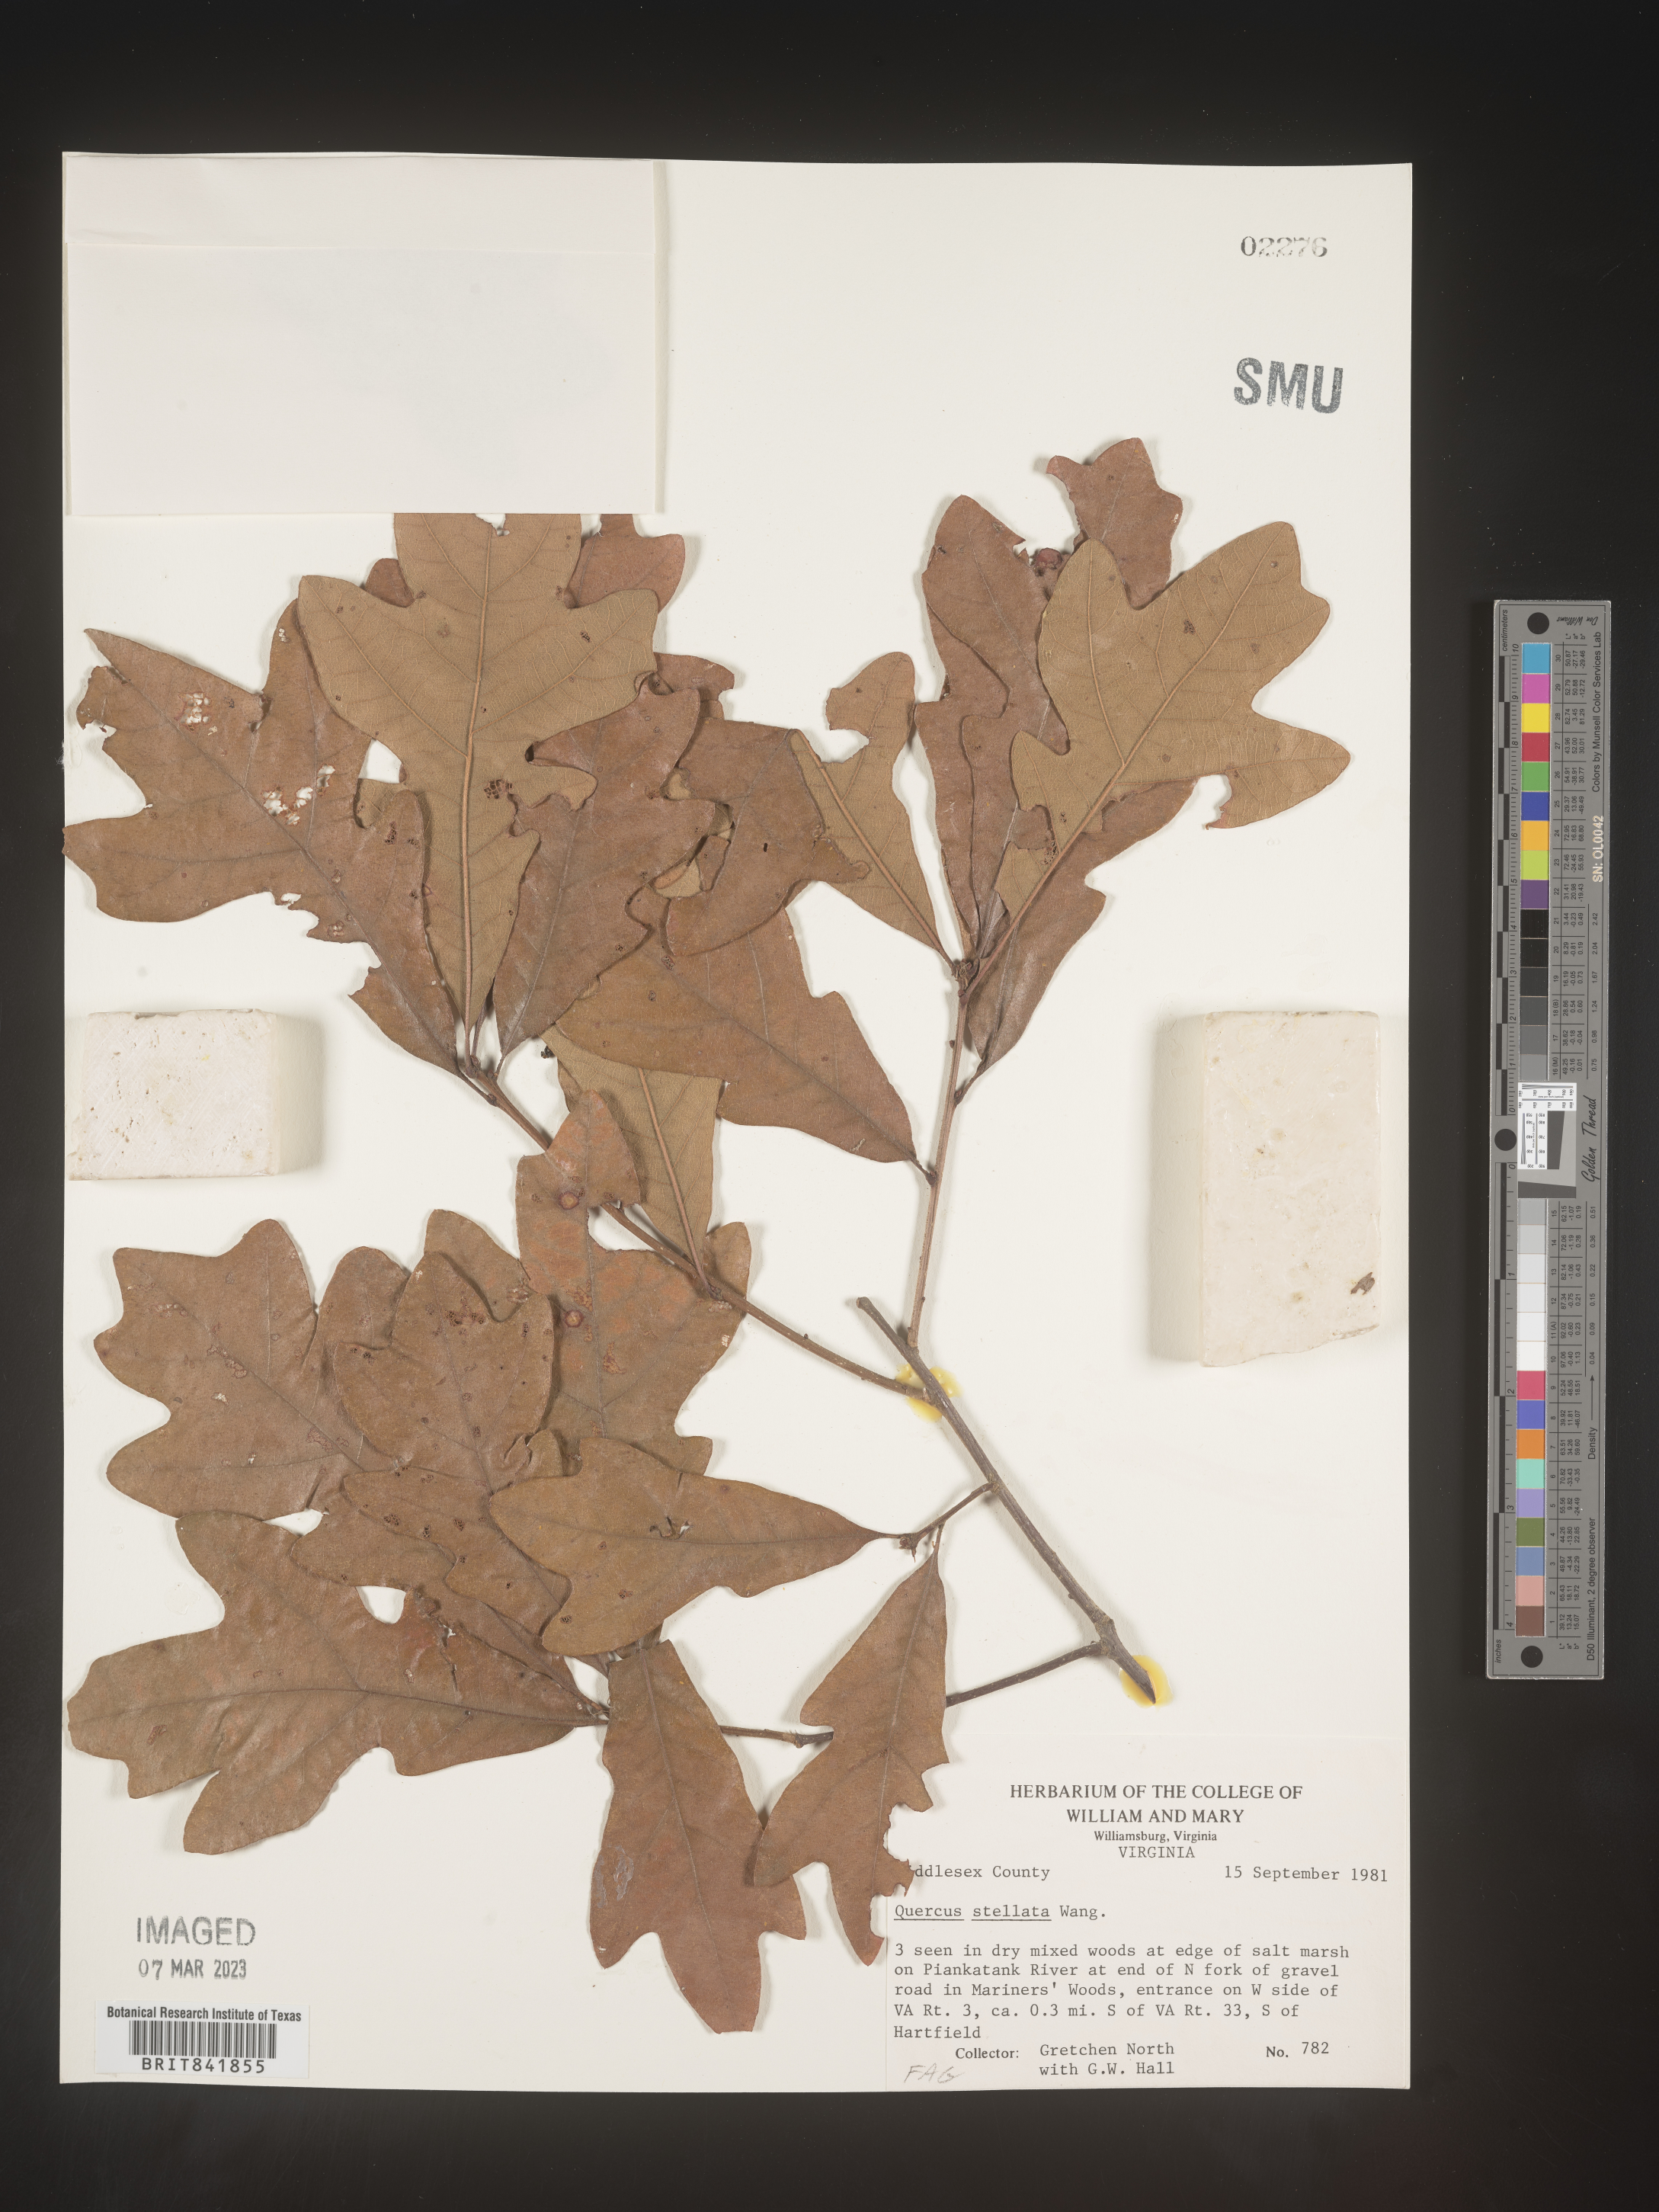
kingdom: Plantae
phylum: Tracheophyta
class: Magnoliopsida
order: Fagales
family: Fagaceae
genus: Quercus
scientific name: Quercus stellata
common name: Post oak
